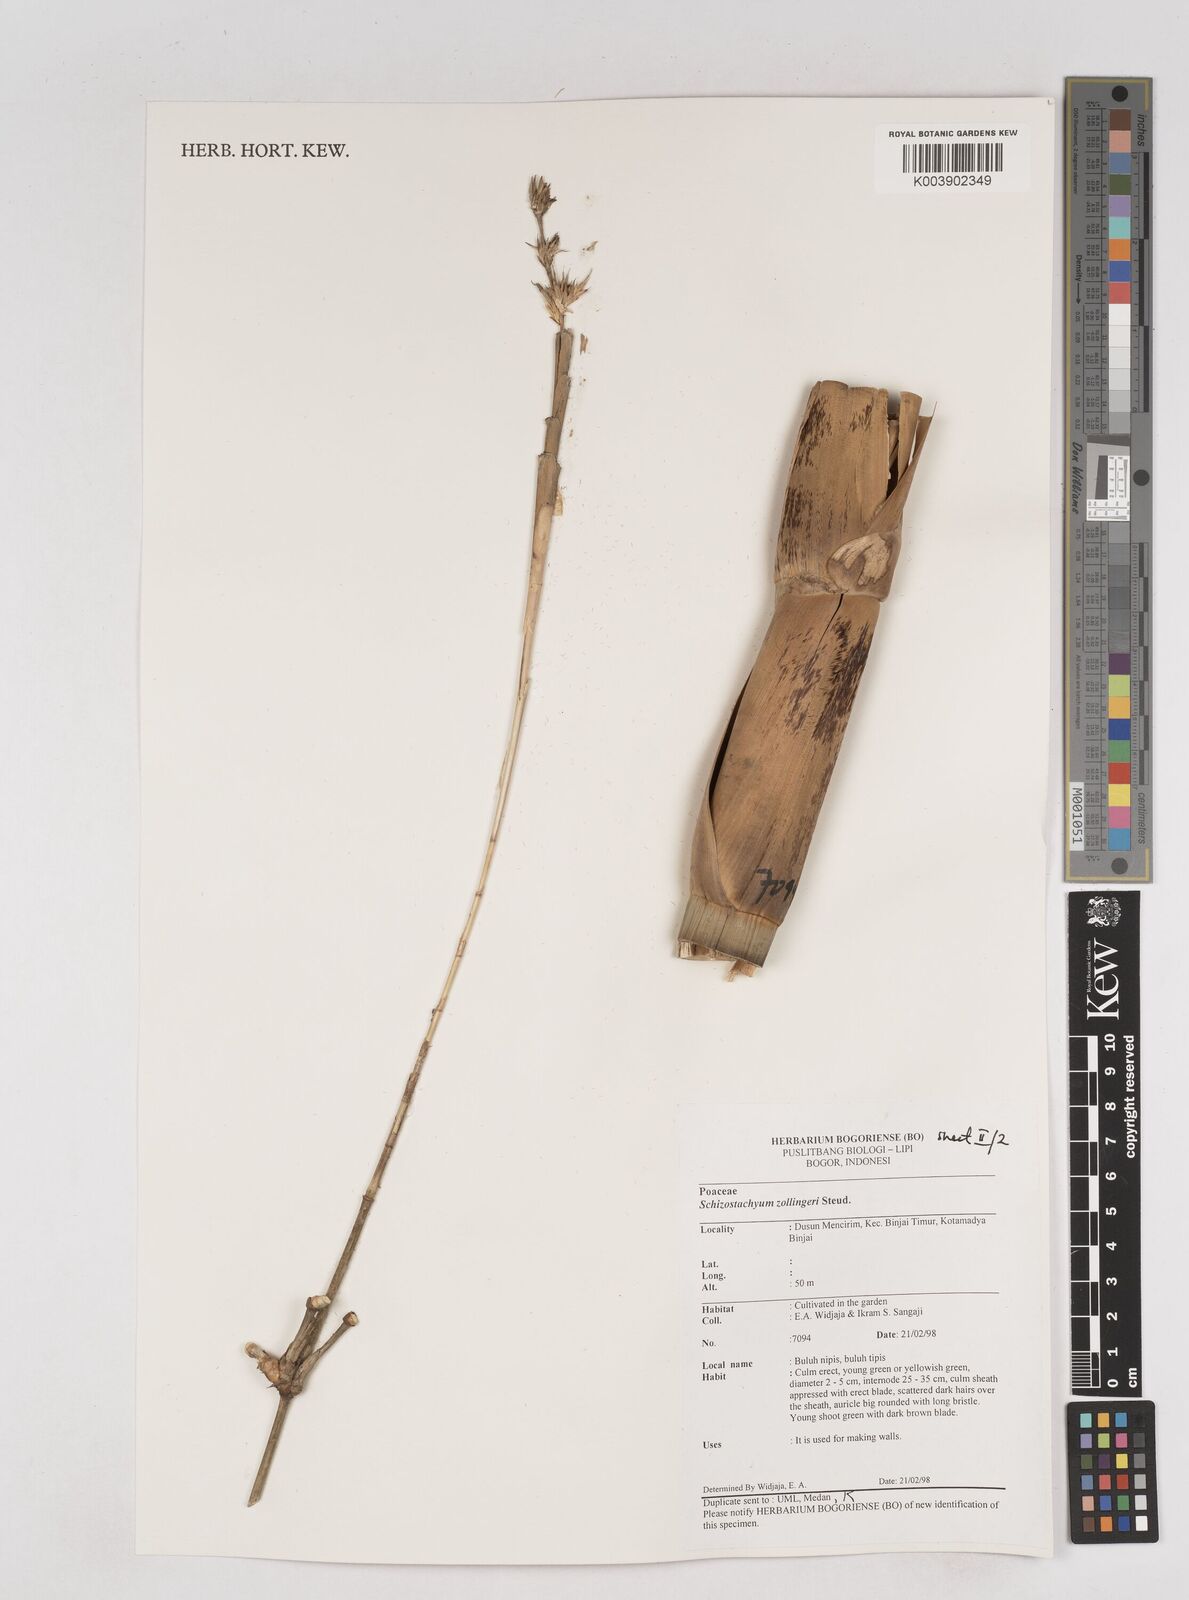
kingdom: Plantae
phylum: Tracheophyta
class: Liliopsida
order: Poales
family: Poaceae
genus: Schizostachyum
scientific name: Schizostachyum zollingeri
